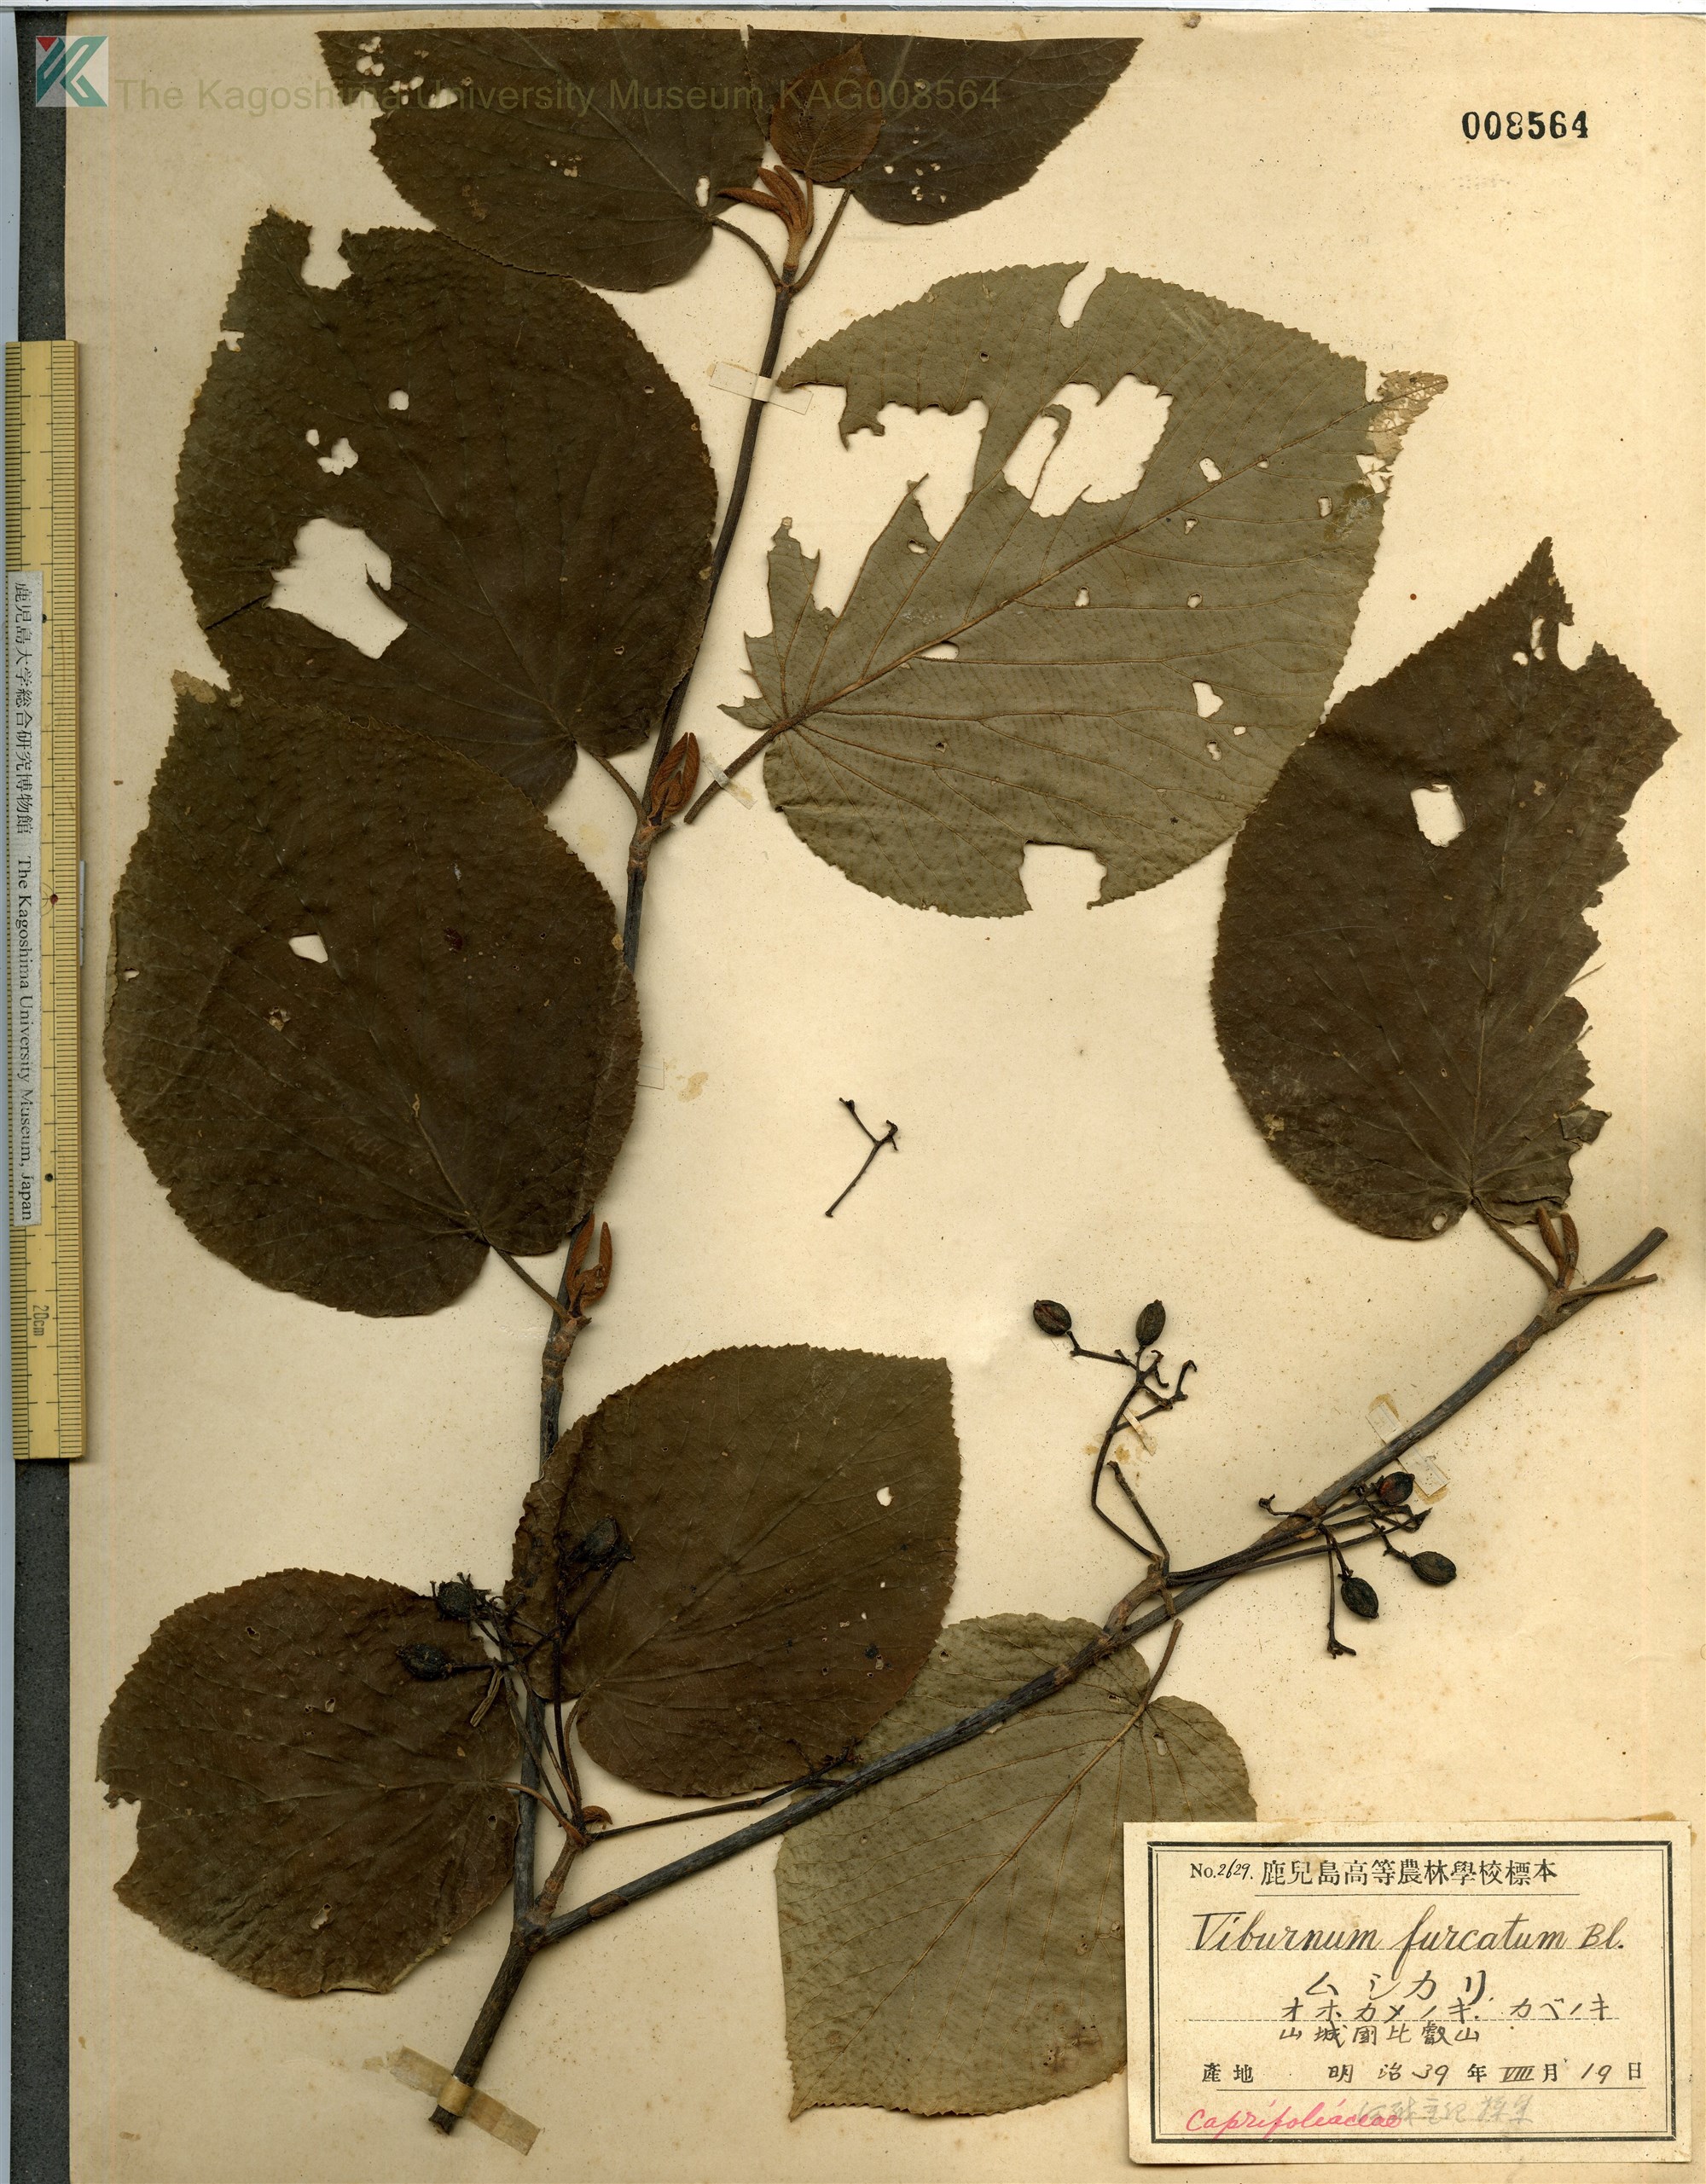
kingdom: Plantae
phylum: Tracheophyta
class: Magnoliopsida
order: Dipsacales
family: Viburnaceae
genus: Viburnum
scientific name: Viburnum furcatum
